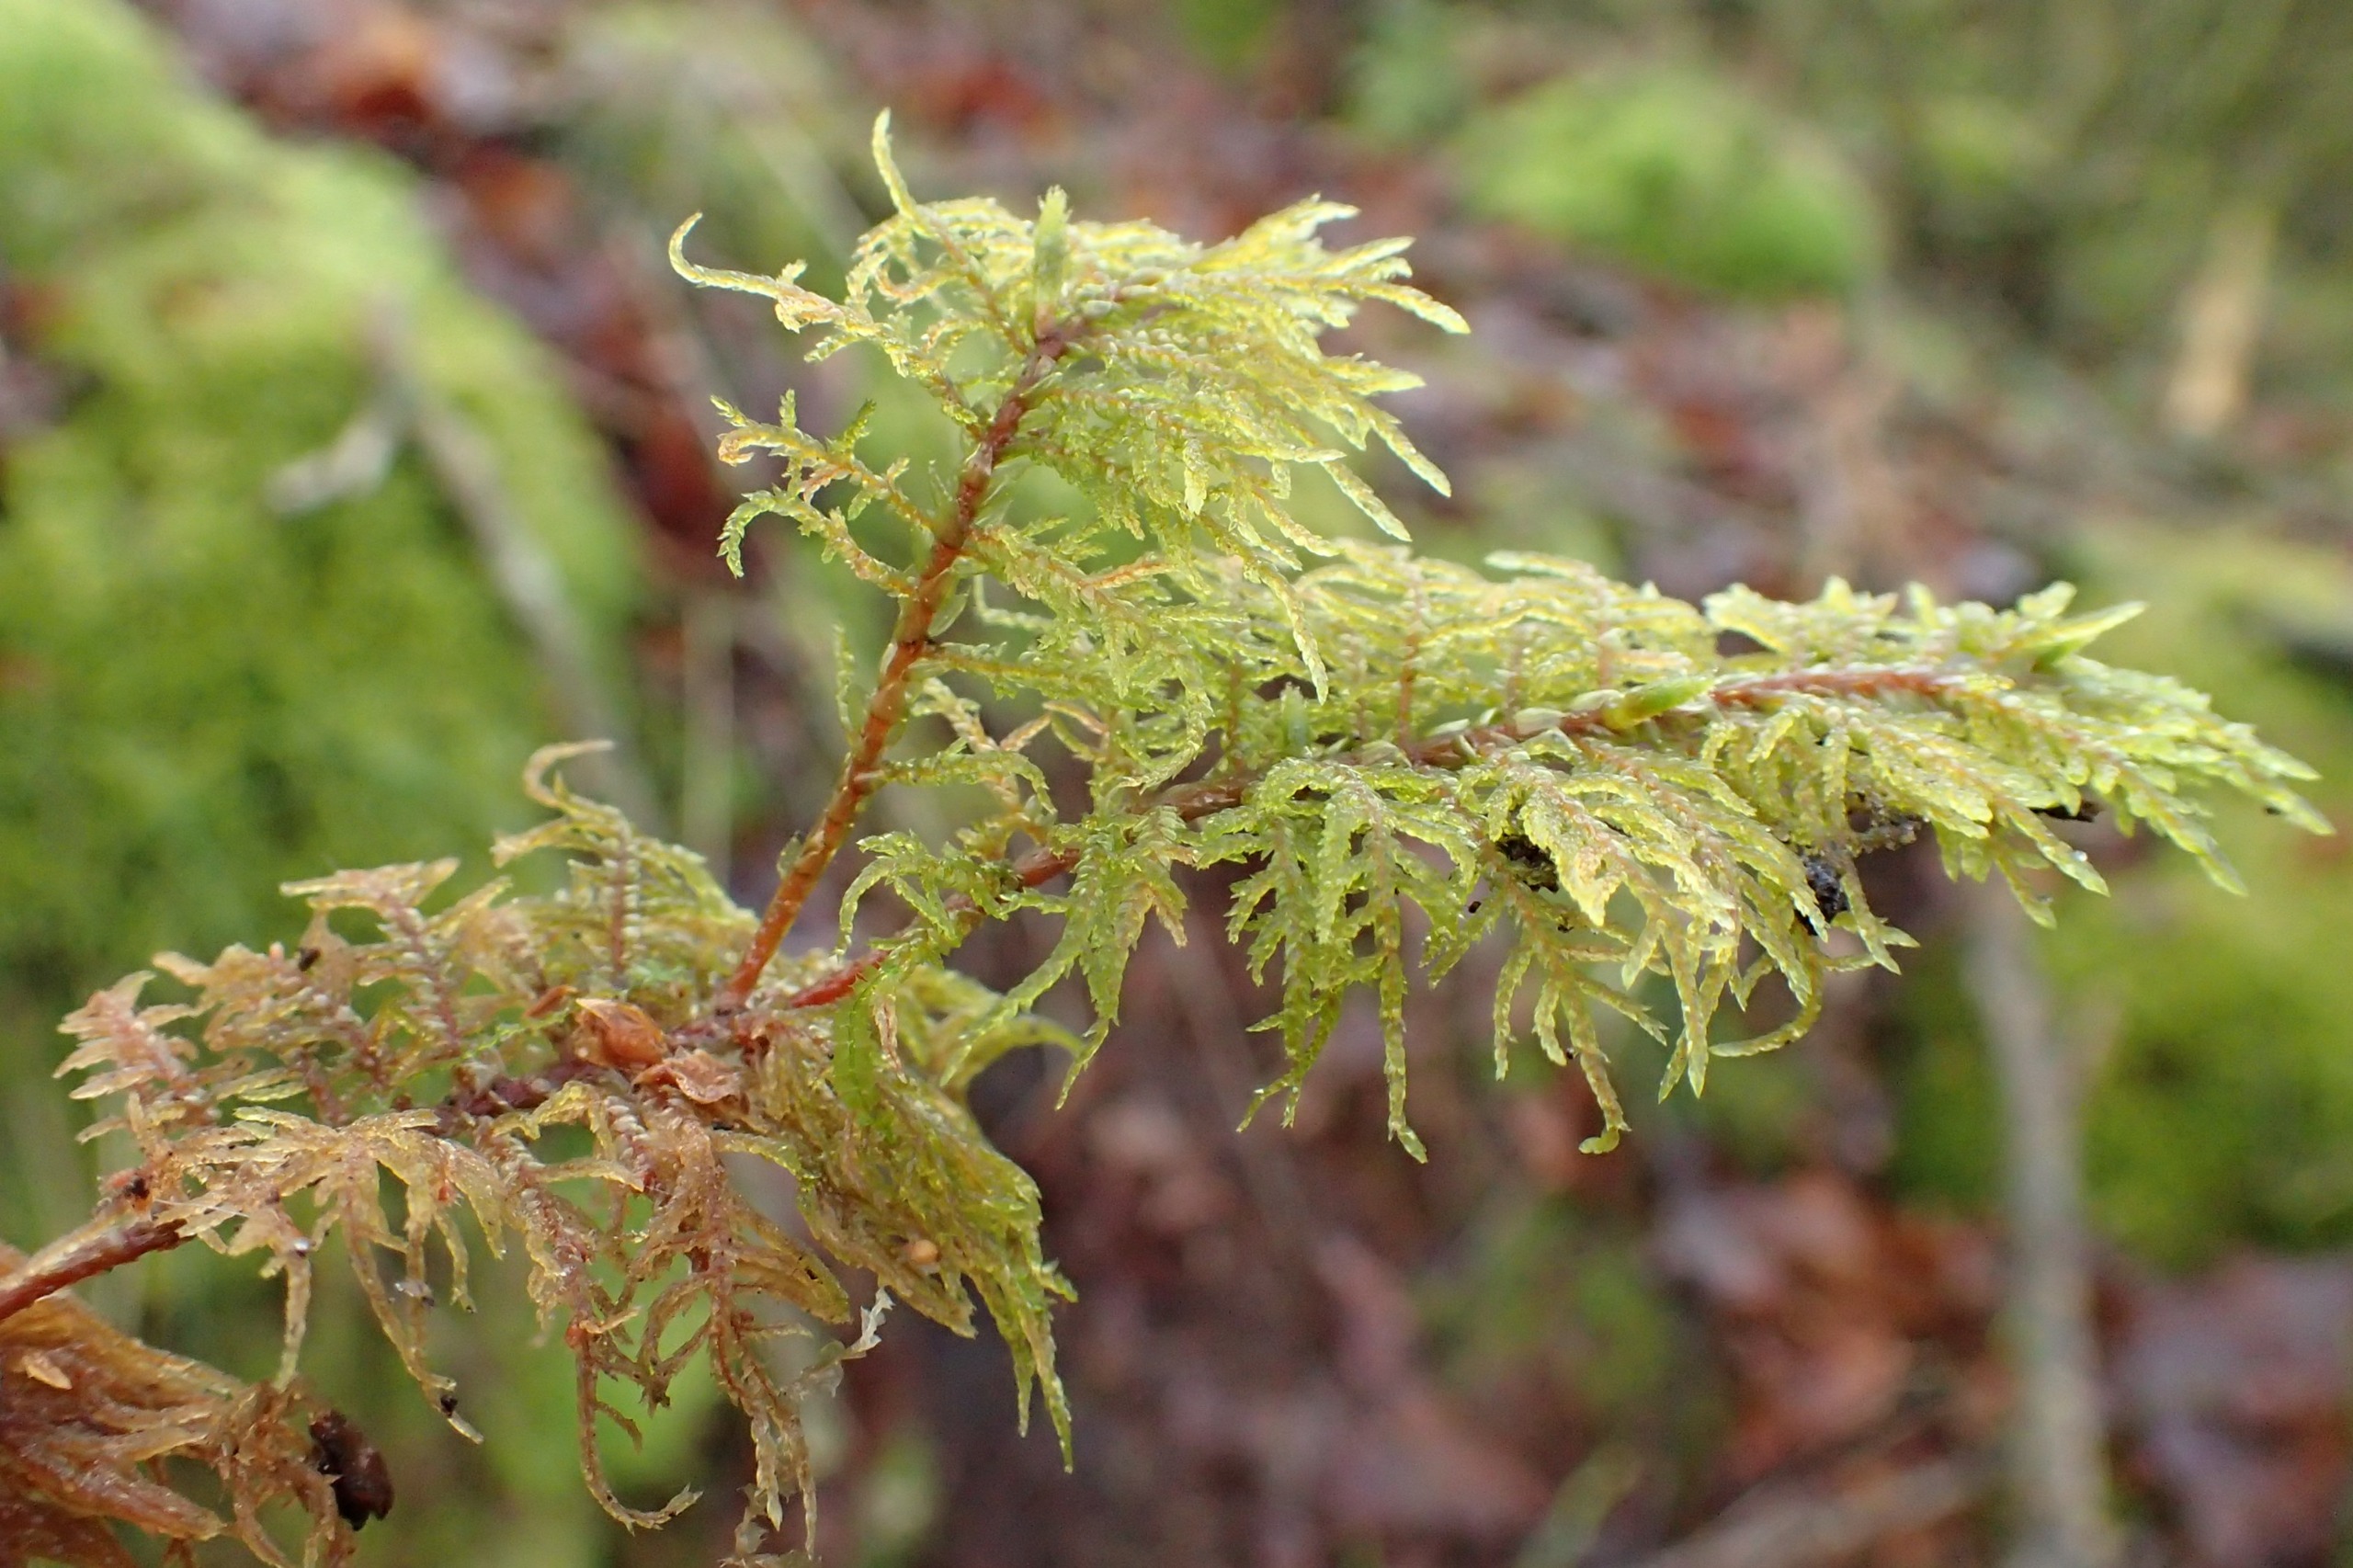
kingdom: Plantae
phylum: Bryophyta
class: Bryopsida
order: Hypnales
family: Hylocomiaceae
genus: Hylocomium
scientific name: Hylocomium splendens
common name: Almindelig etagemos
